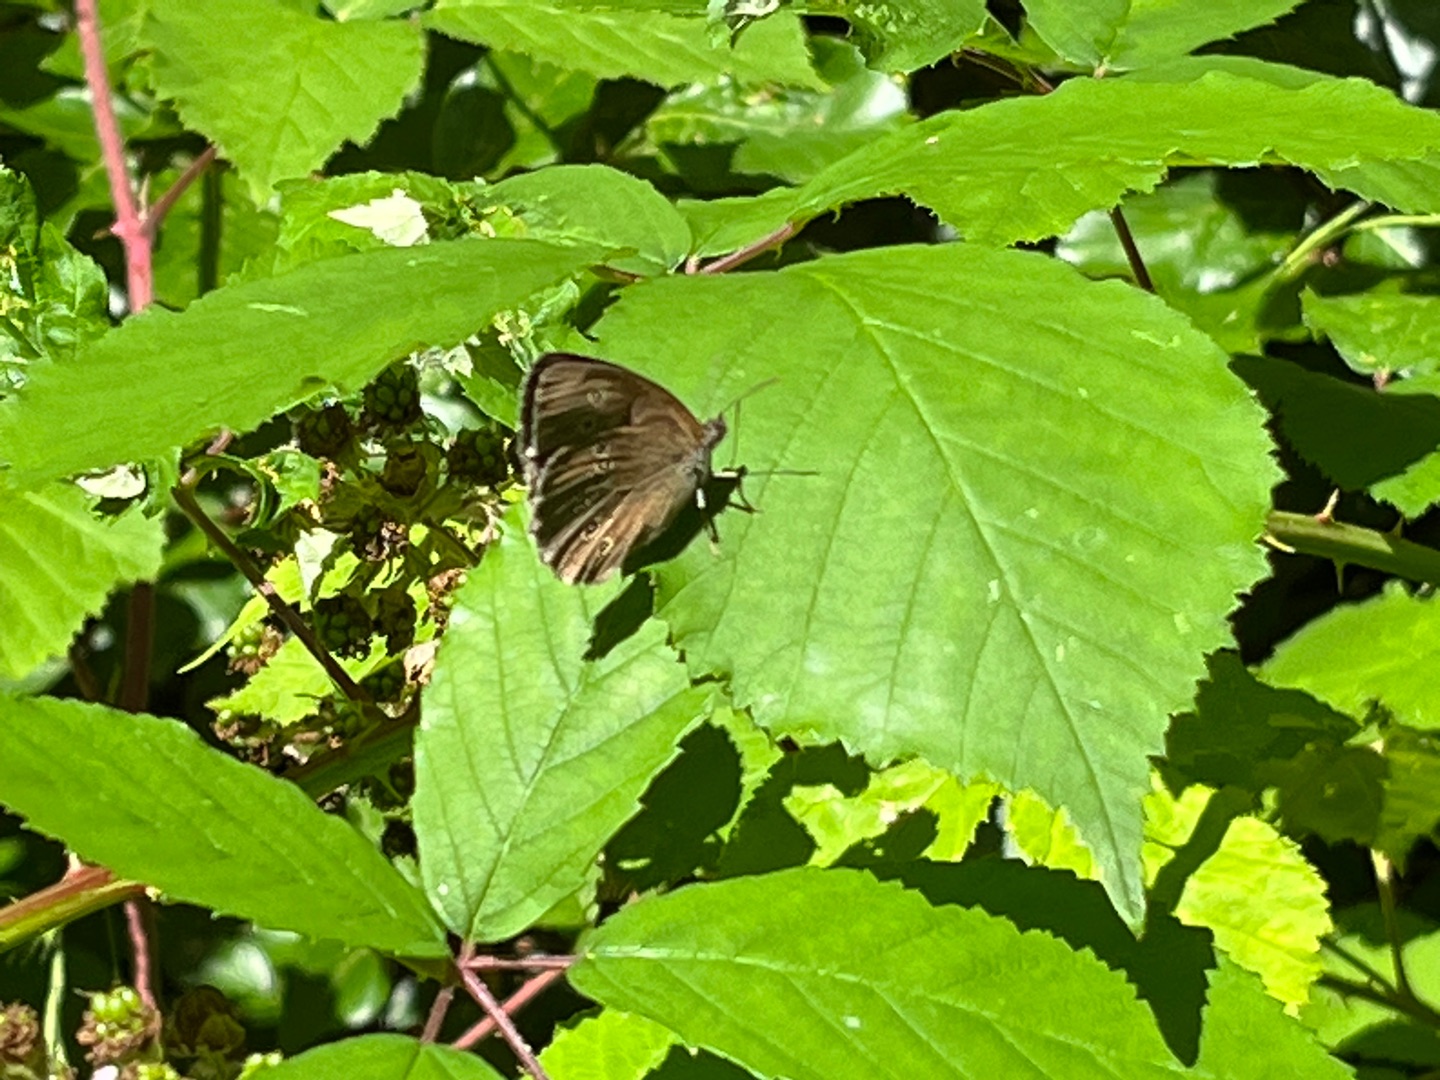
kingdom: Animalia
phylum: Arthropoda
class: Insecta
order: Lepidoptera
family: Nymphalidae
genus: Aphantopus
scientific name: Aphantopus hyperantus
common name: Engrandøje
